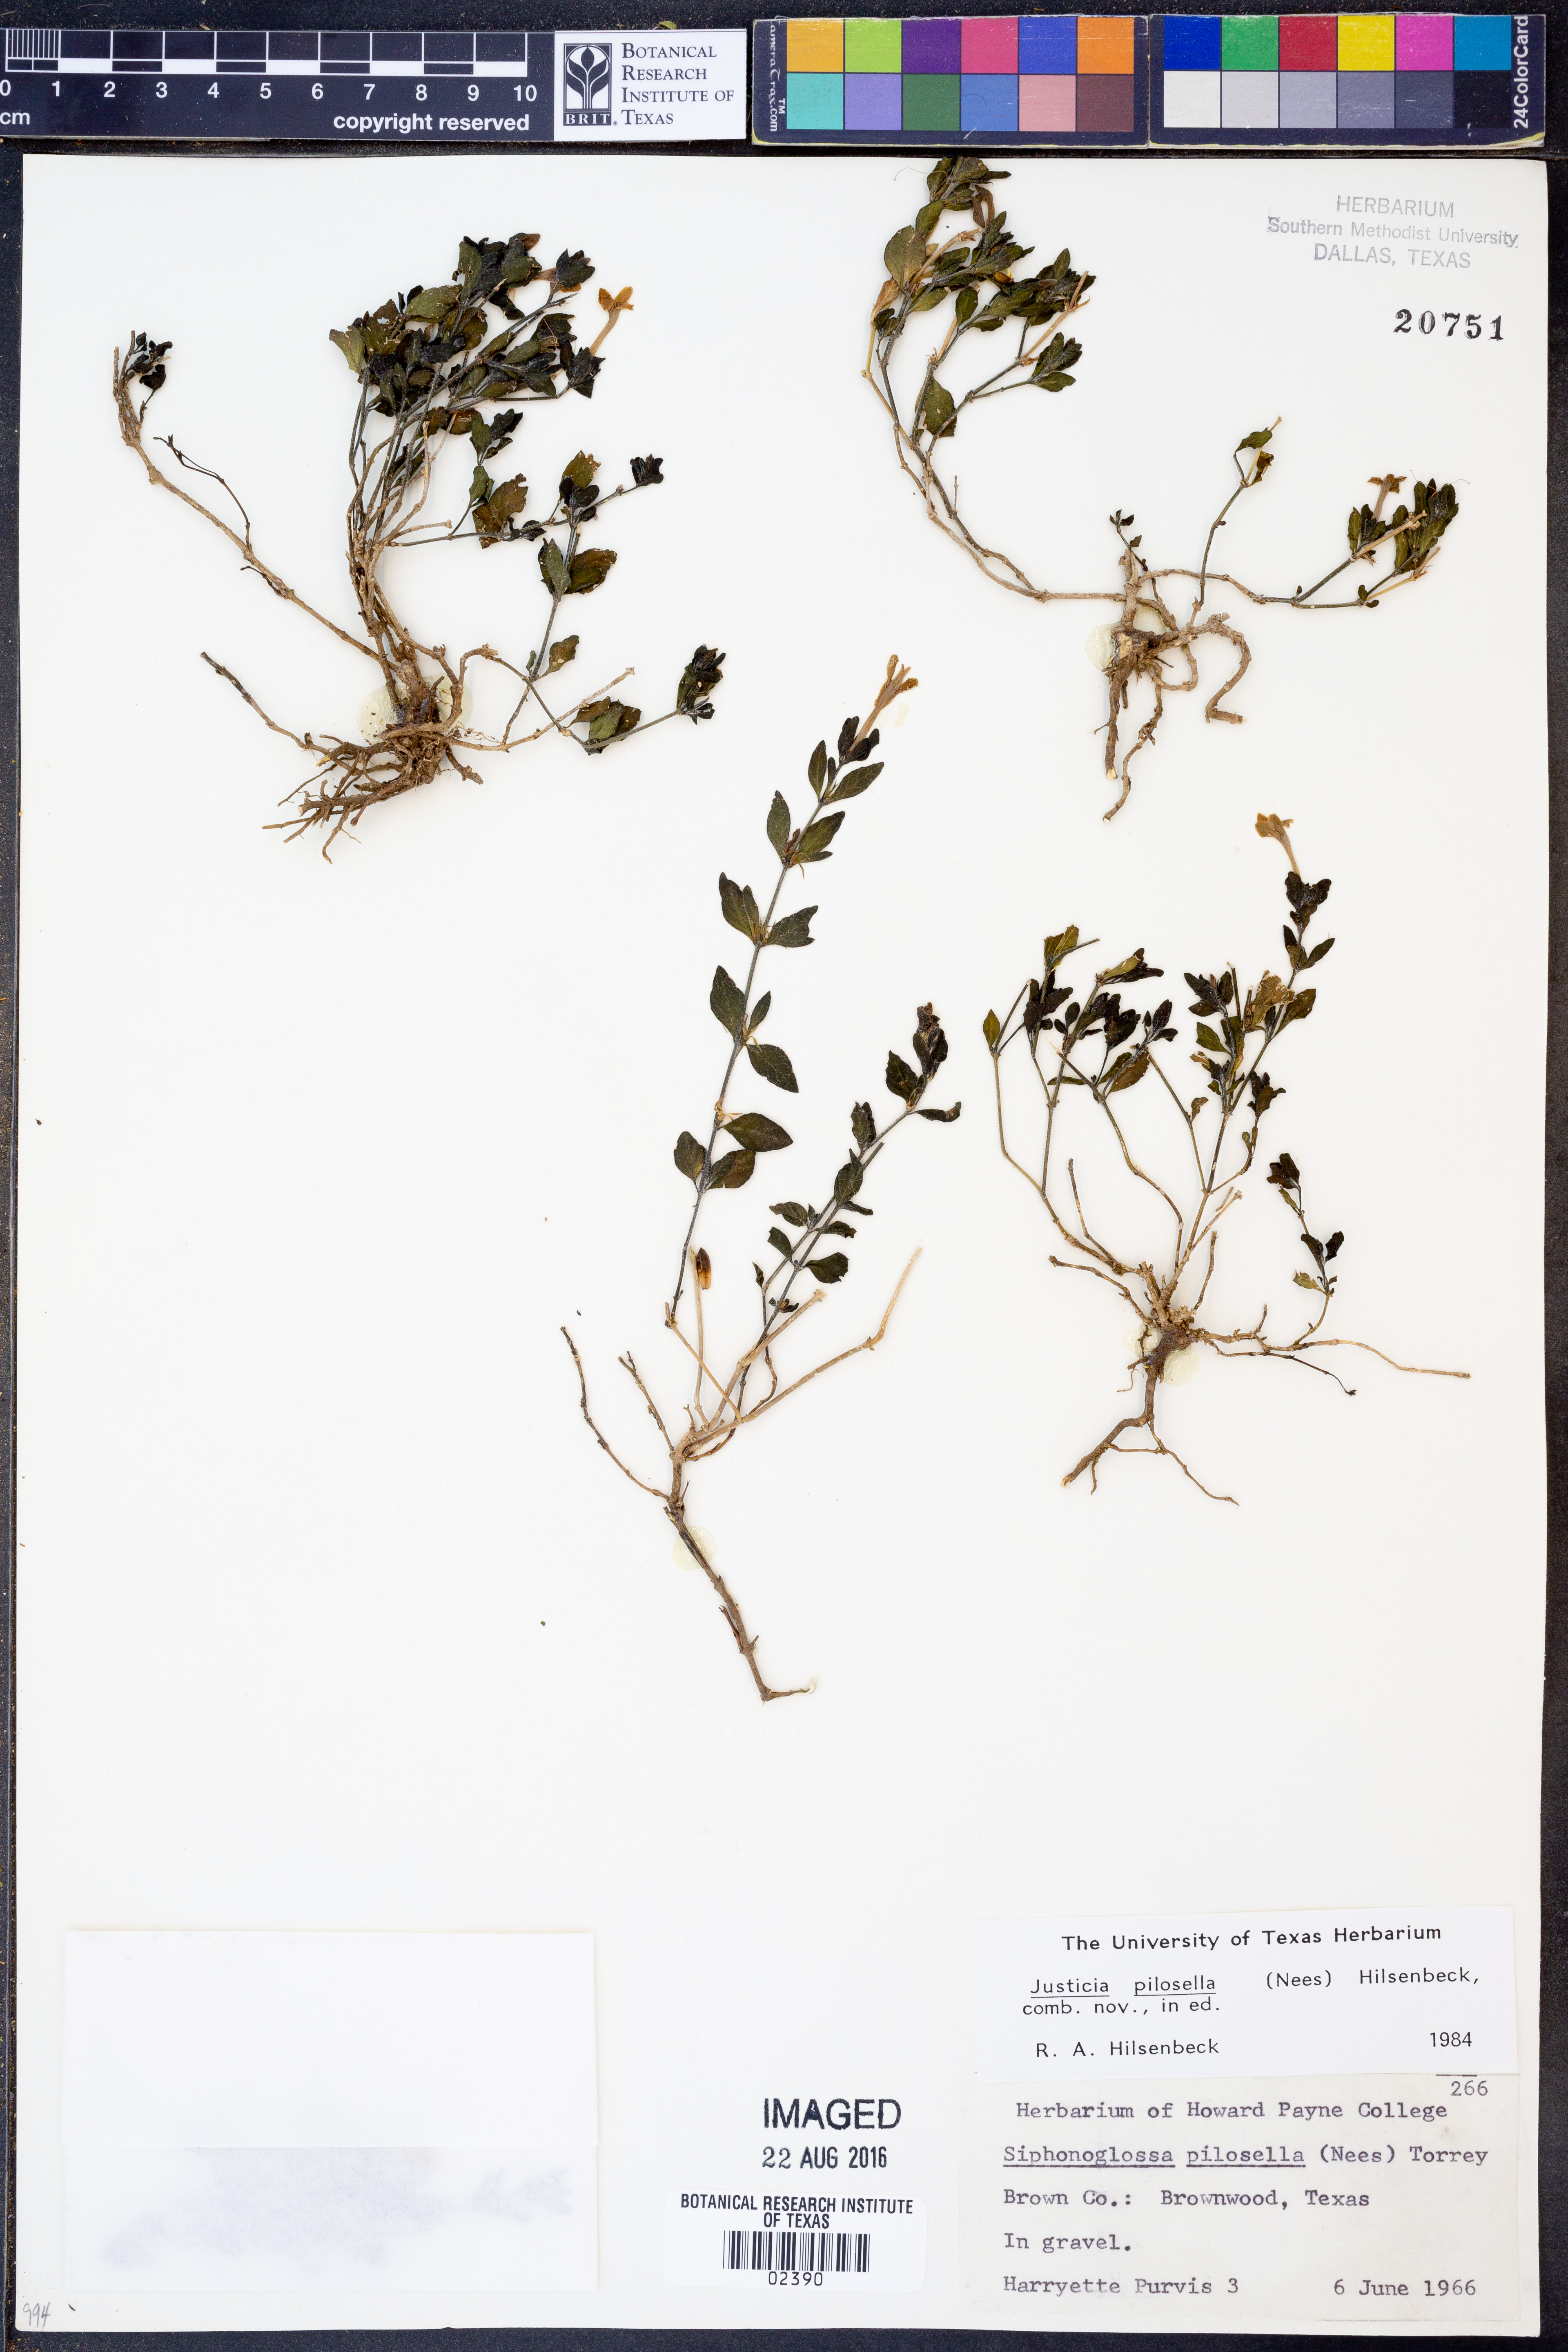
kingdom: Plantae
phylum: Tracheophyta
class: Magnoliopsida
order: Lamiales
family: Acanthaceae
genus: Justicia
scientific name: Justicia pilosella
